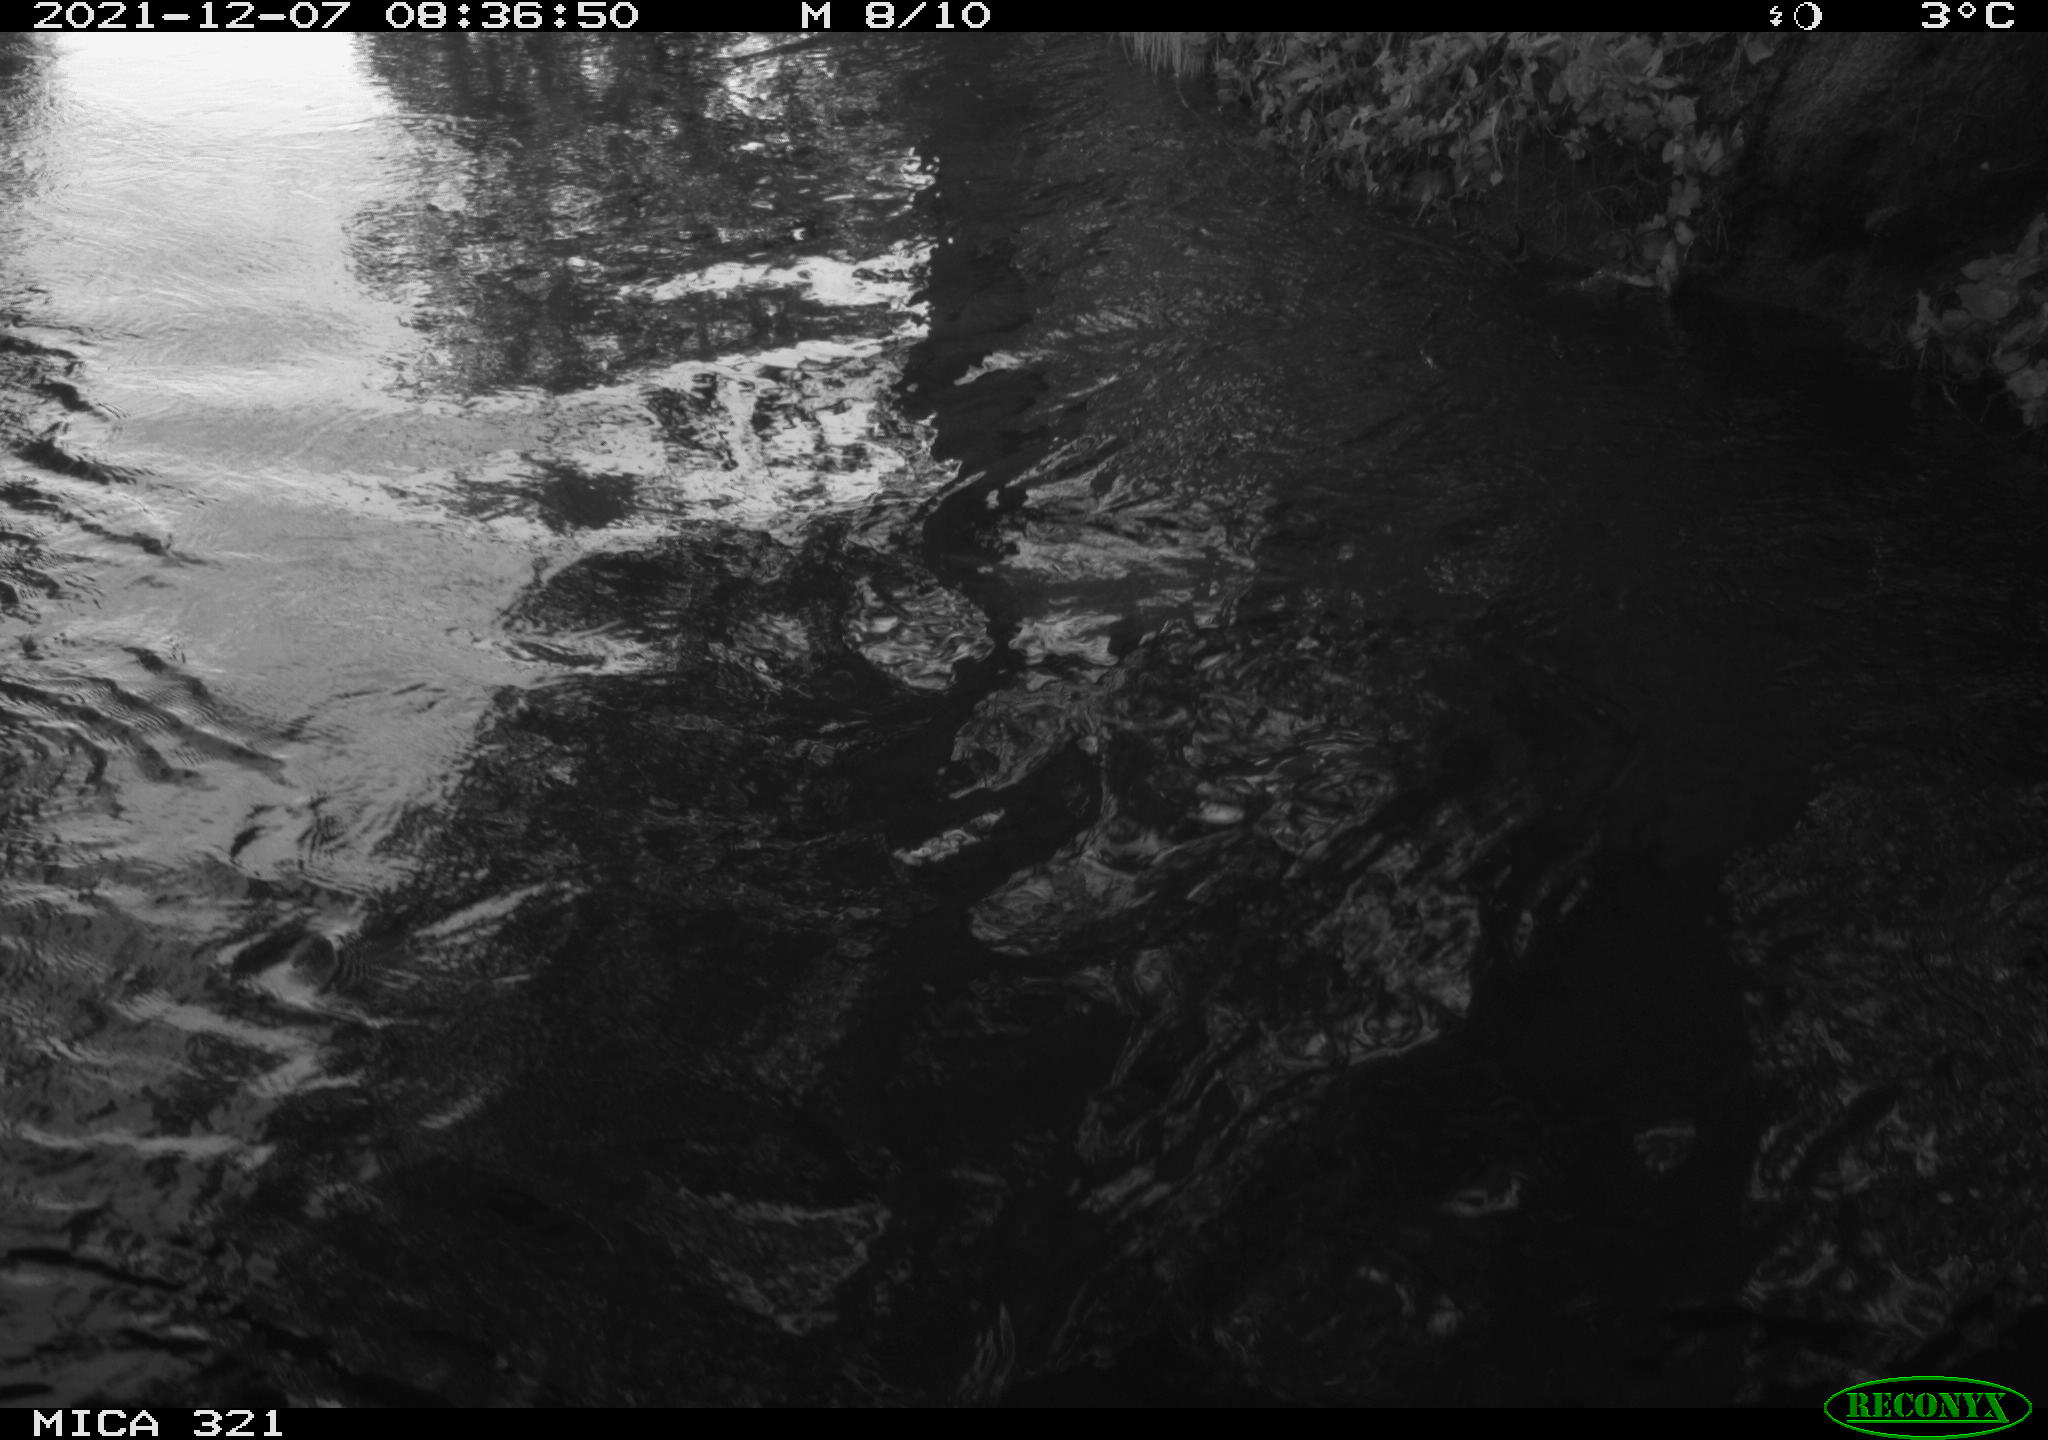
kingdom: Animalia
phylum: Chordata
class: Aves
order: Anseriformes
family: Anatidae
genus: Anas
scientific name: Anas platyrhynchos
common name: Mallard
